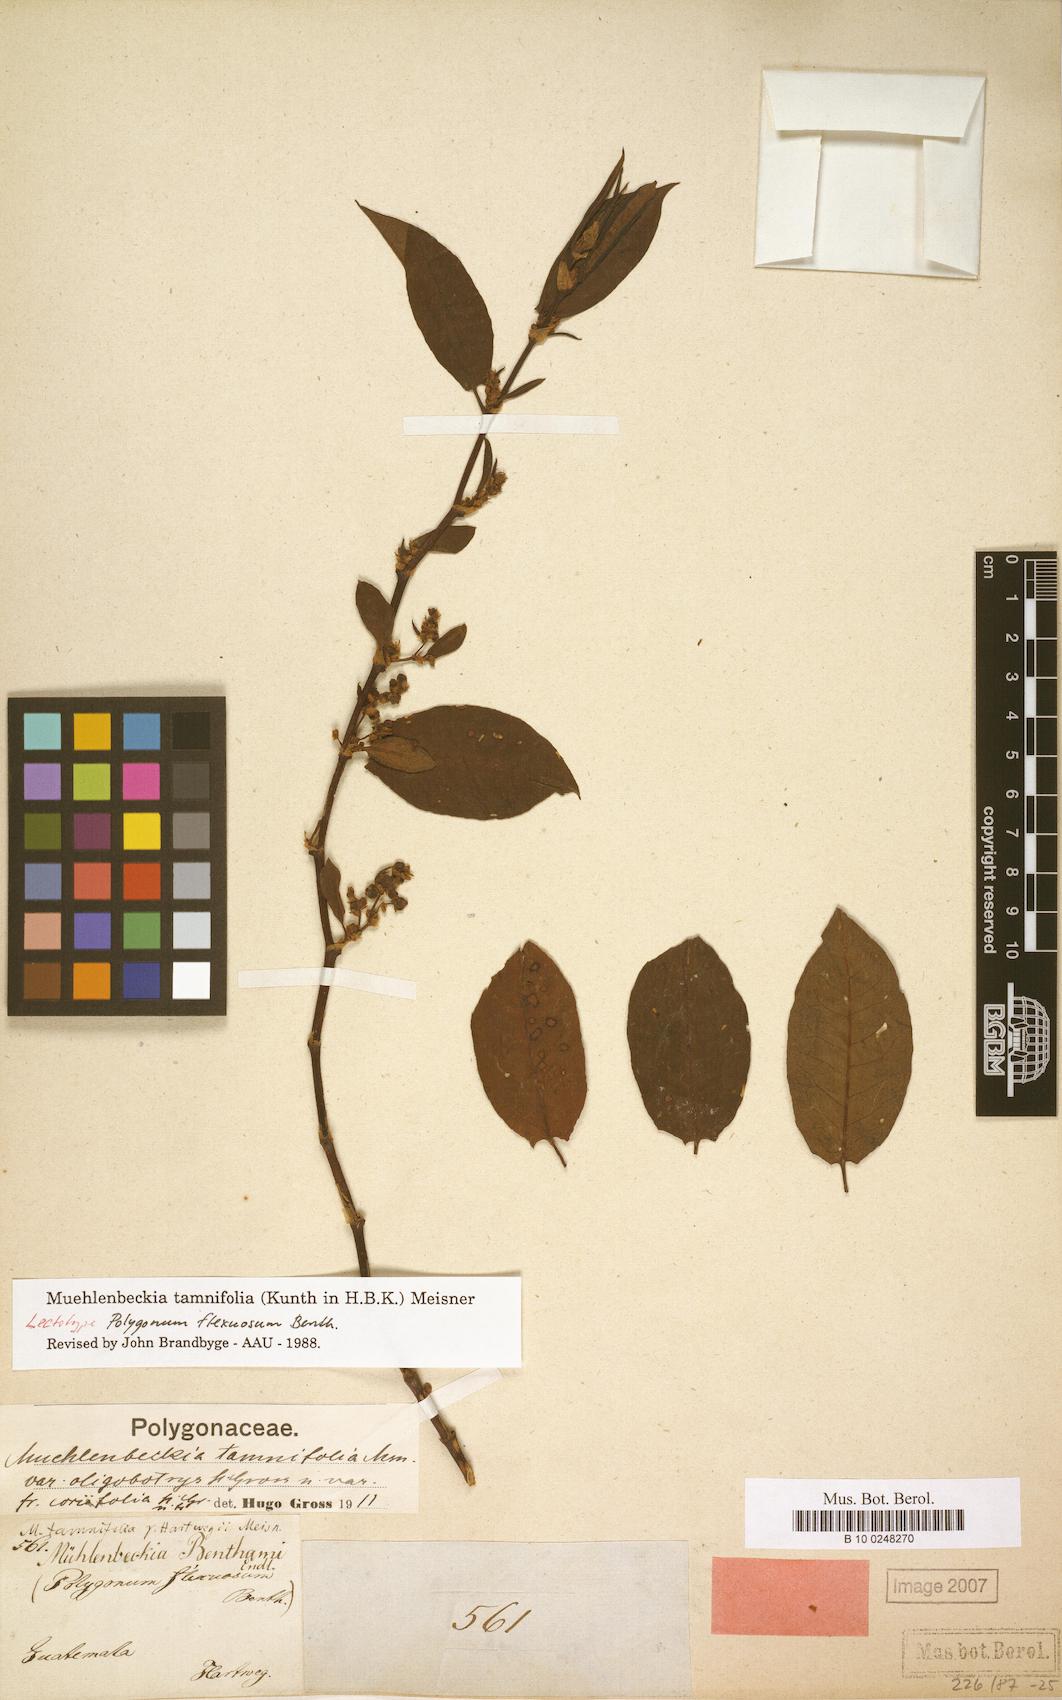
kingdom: Plantae
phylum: Tracheophyta
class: Magnoliopsida
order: Caryophyllales
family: Polygonaceae
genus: Muehlenbeckia
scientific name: Muehlenbeckia tamnifolia
